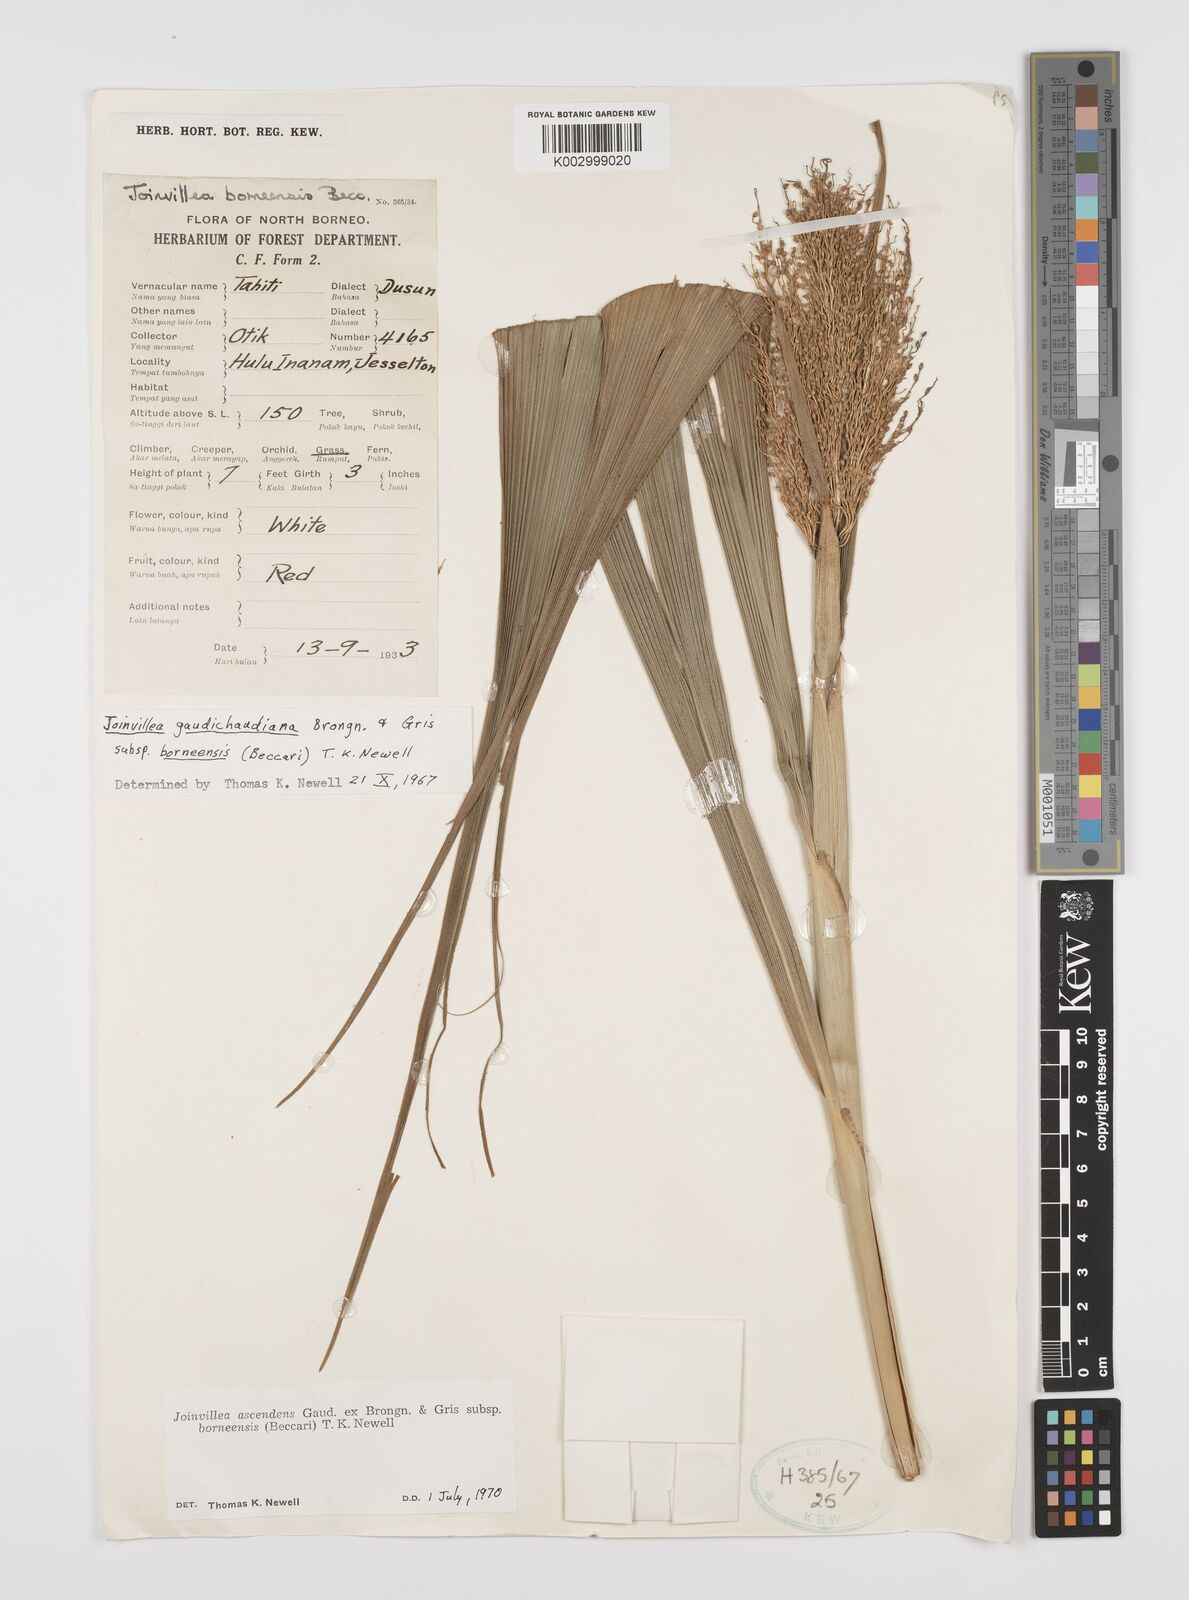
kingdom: Plantae
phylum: Tracheophyta
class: Liliopsida
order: Poales
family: Joinvilleaceae
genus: Joinvillea
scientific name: Joinvillea borneensis
